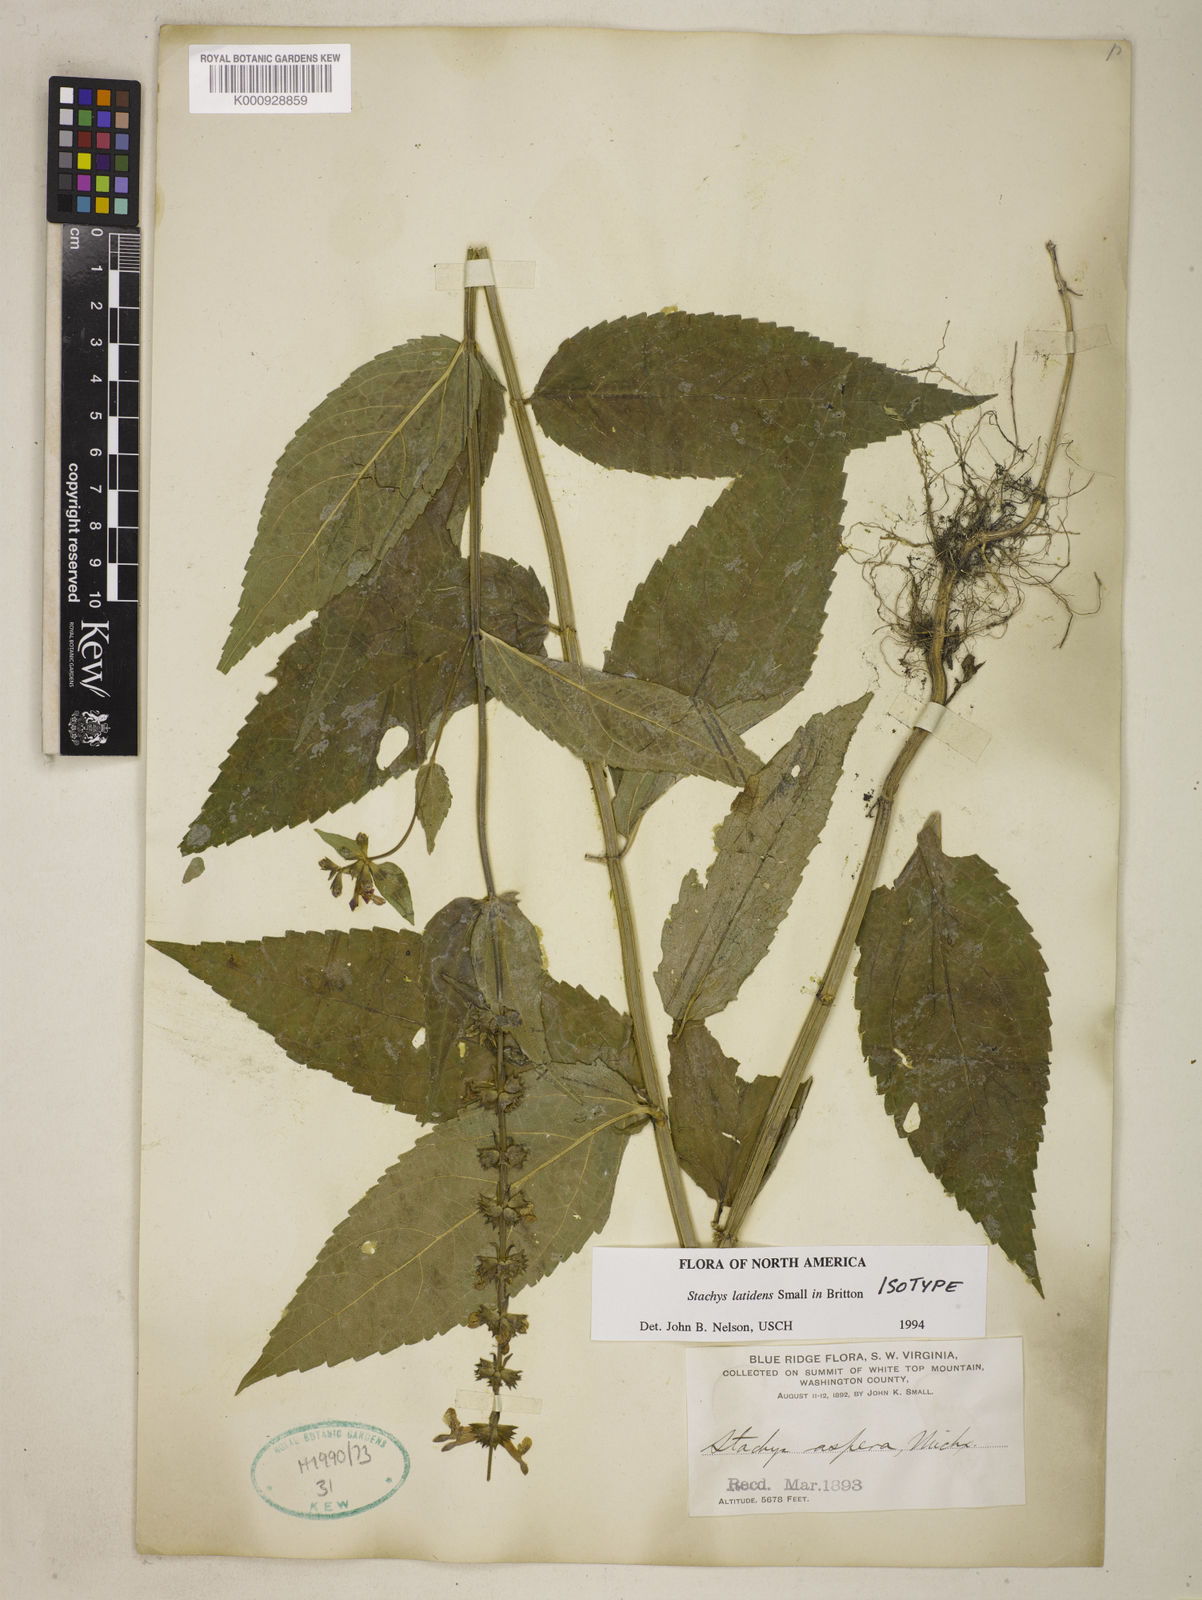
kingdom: Plantae
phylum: Tracheophyta
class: Magnoliopsida
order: Lamiales
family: Lamiaceae
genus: Stachys
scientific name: Stachys latidens
